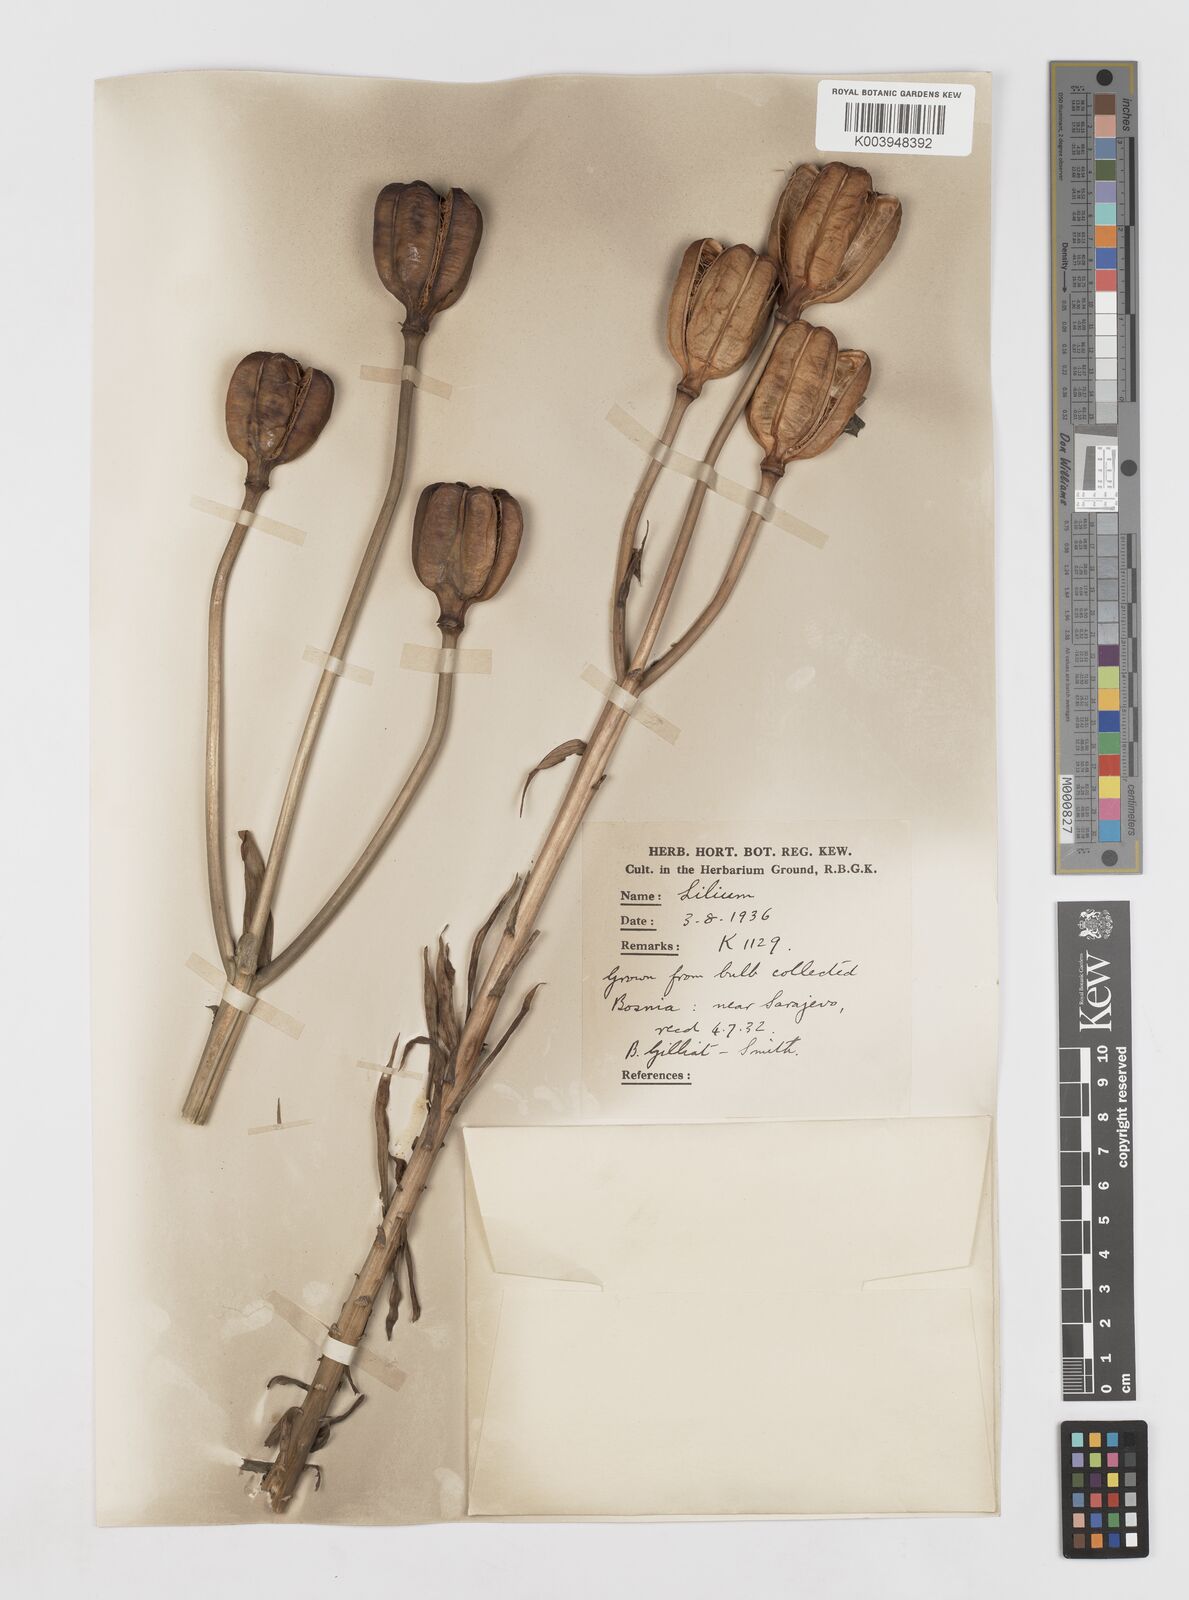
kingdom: Plantae
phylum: Tracheophyta
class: Liliopsida
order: Liliales
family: Liliaceae
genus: Lilium
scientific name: Lilium bosniacum
